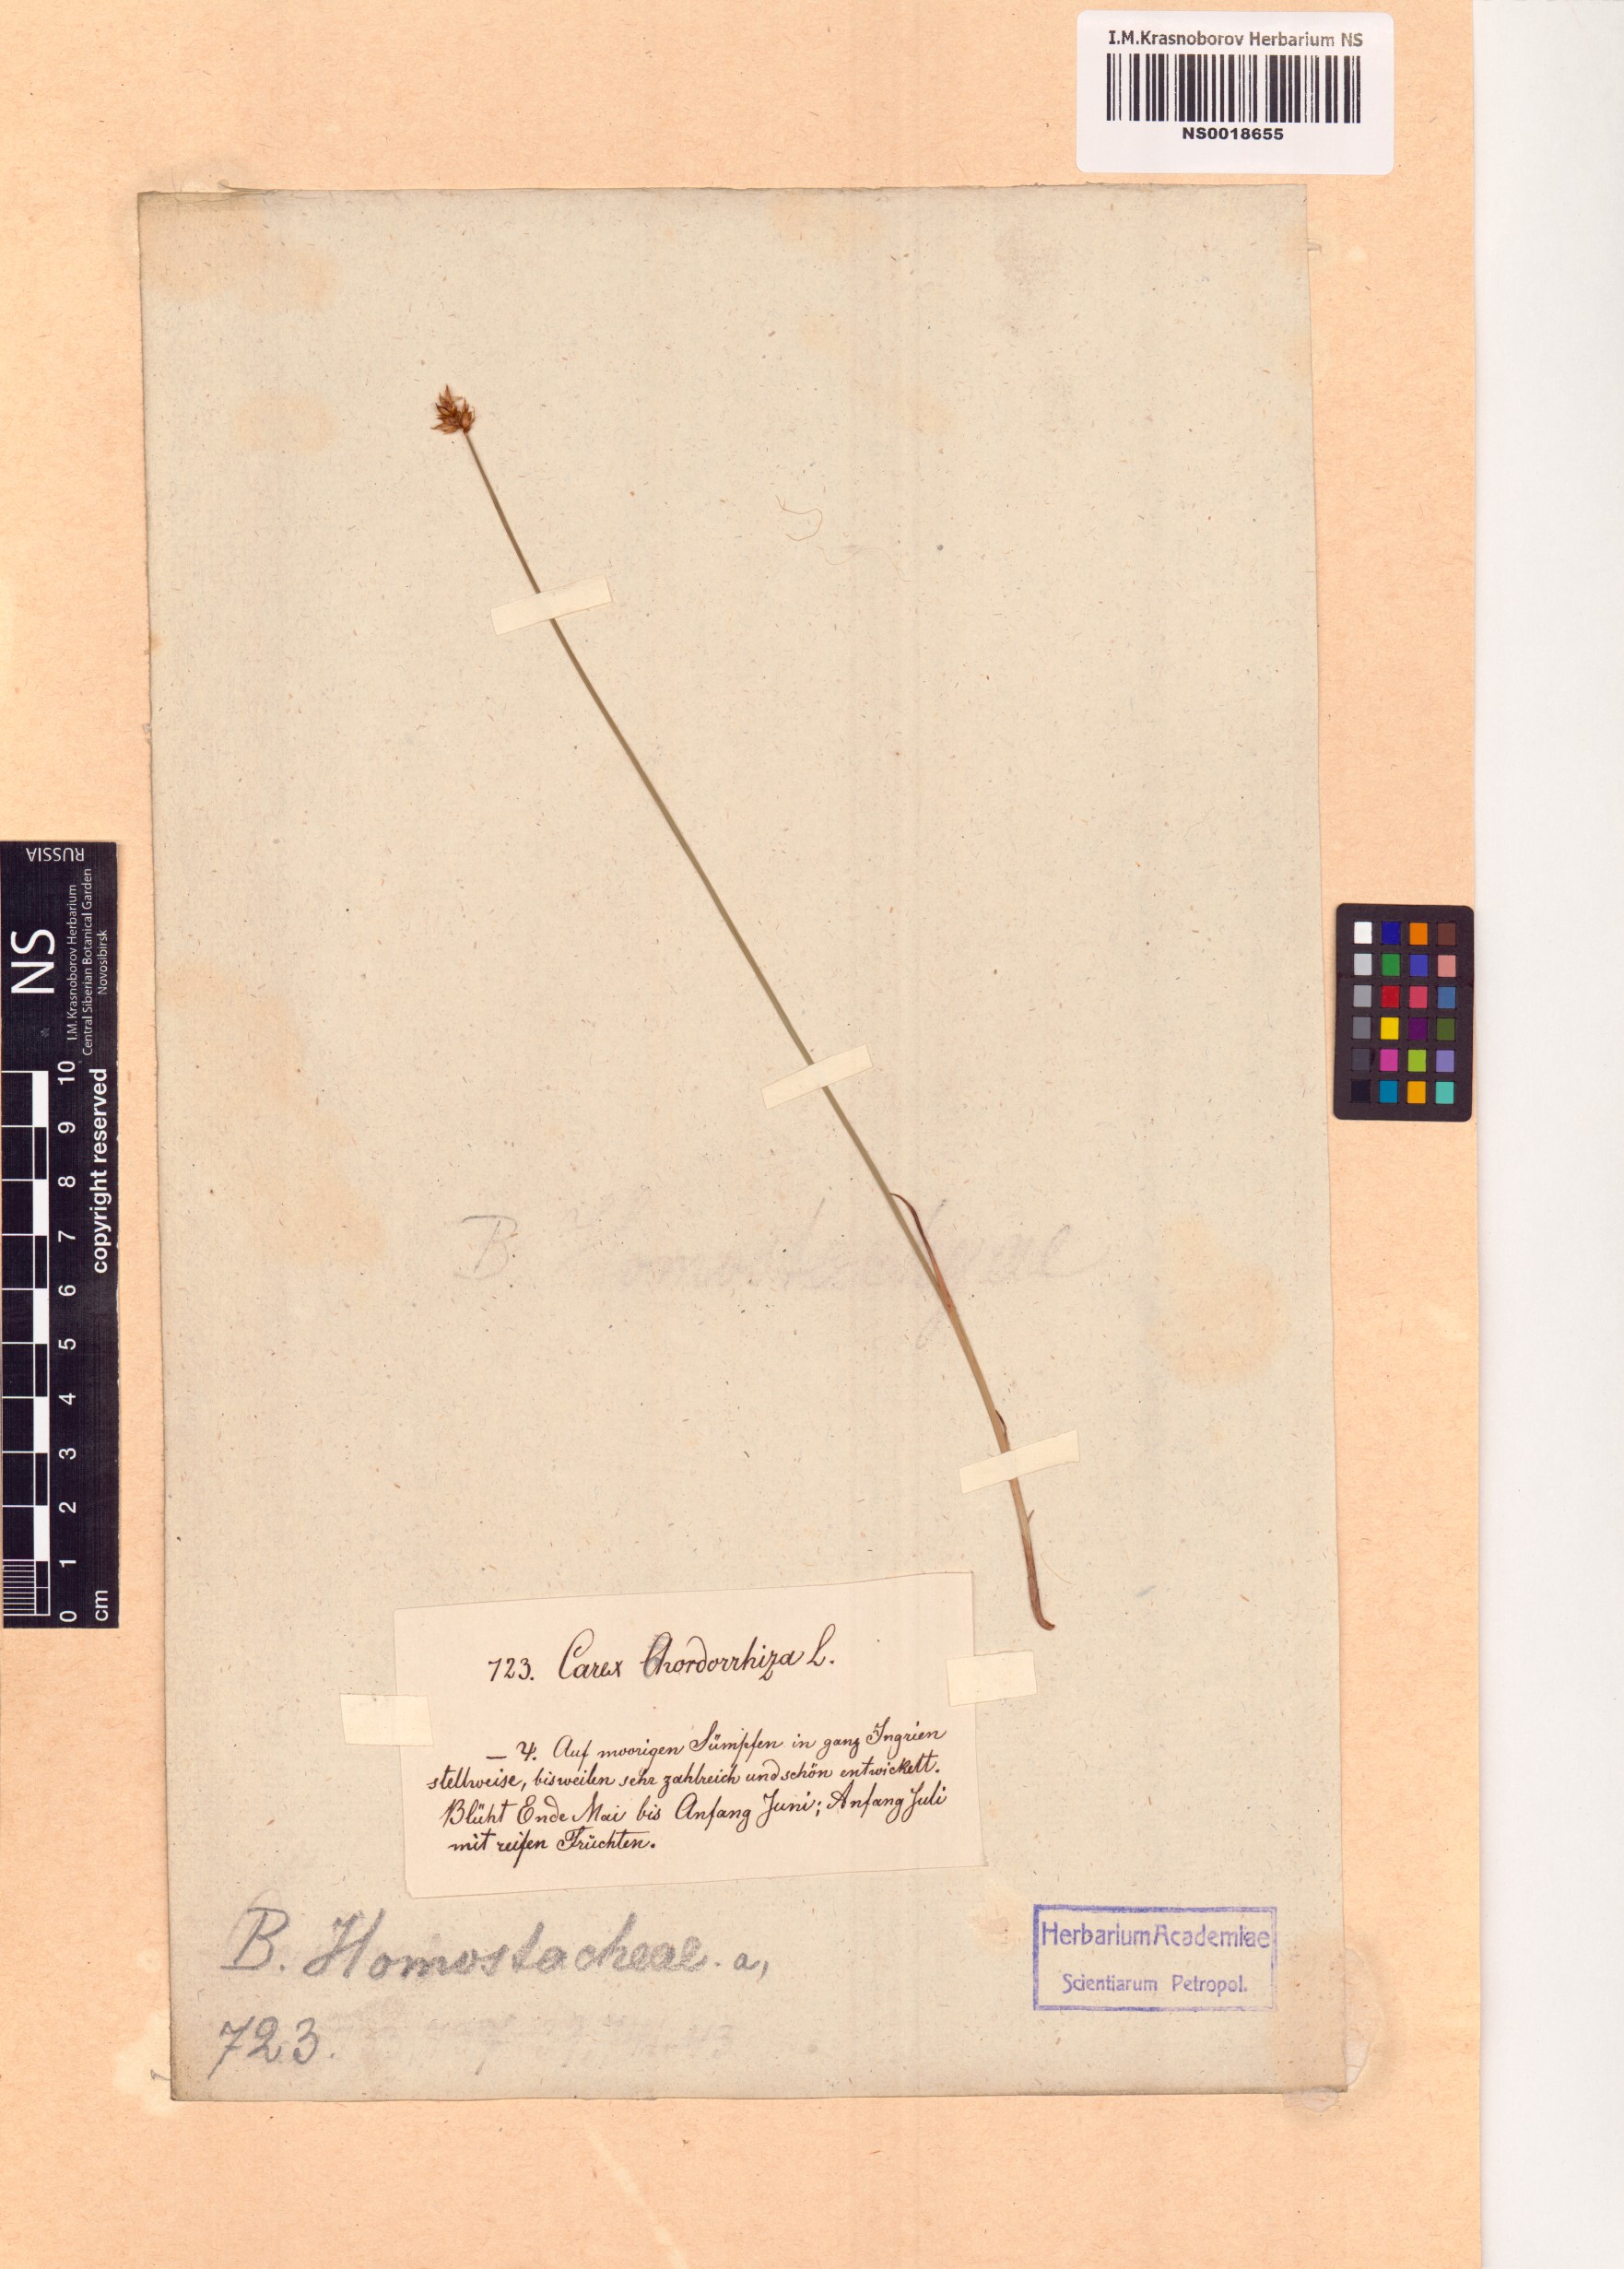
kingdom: Plantae
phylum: Tracheophyta
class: Liliopsida
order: Poales
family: Cyperaceae
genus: Carex
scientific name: Carex chordorrhiza
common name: String sedge
